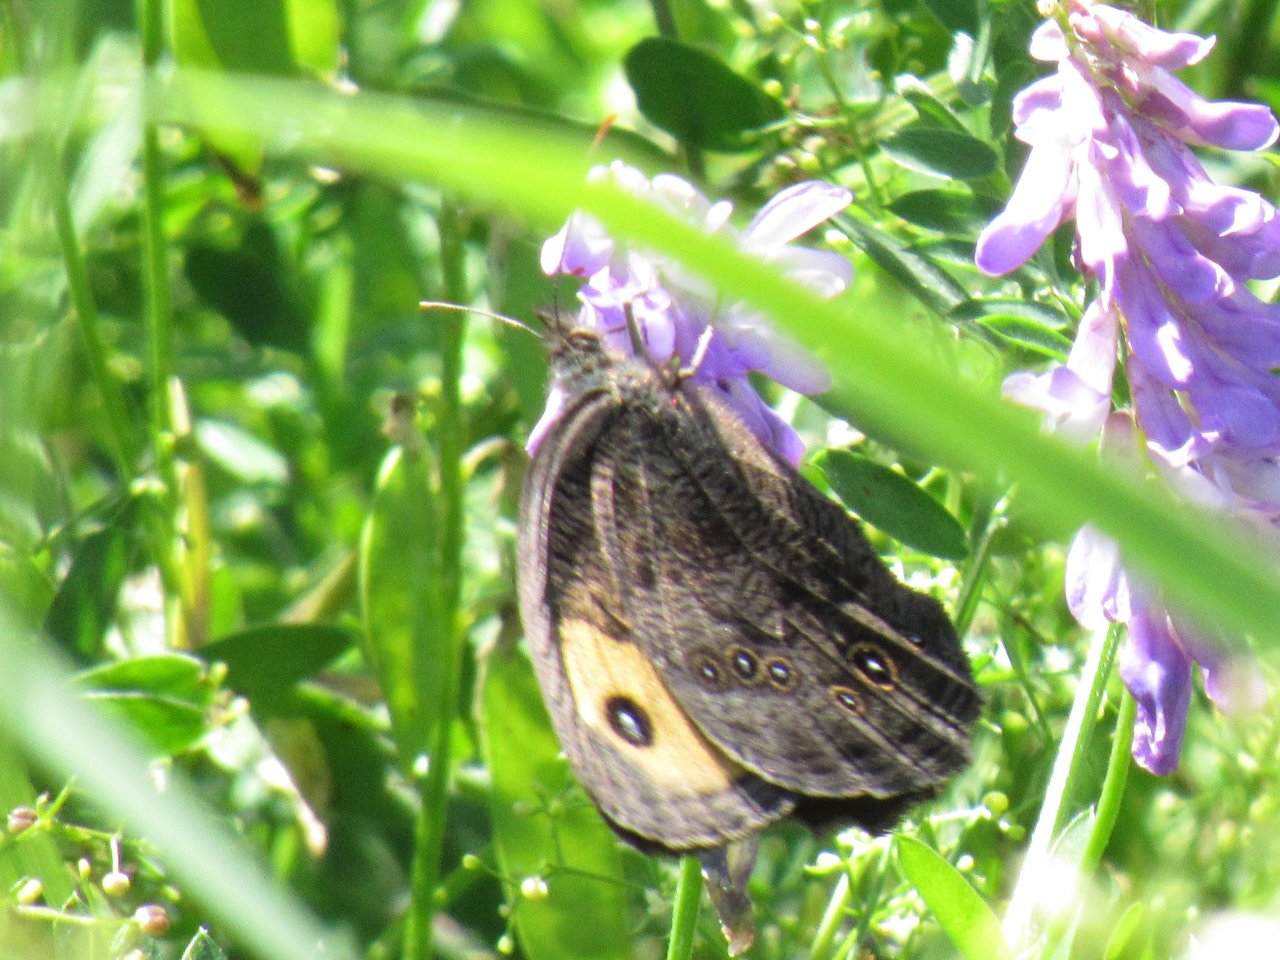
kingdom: Animalia
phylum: Arthropoda
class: Insecta
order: Lepidoptera
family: Nymphalidae
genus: Cercyonis
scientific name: Cercyonis pegala
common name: Common Wood-Nymph
